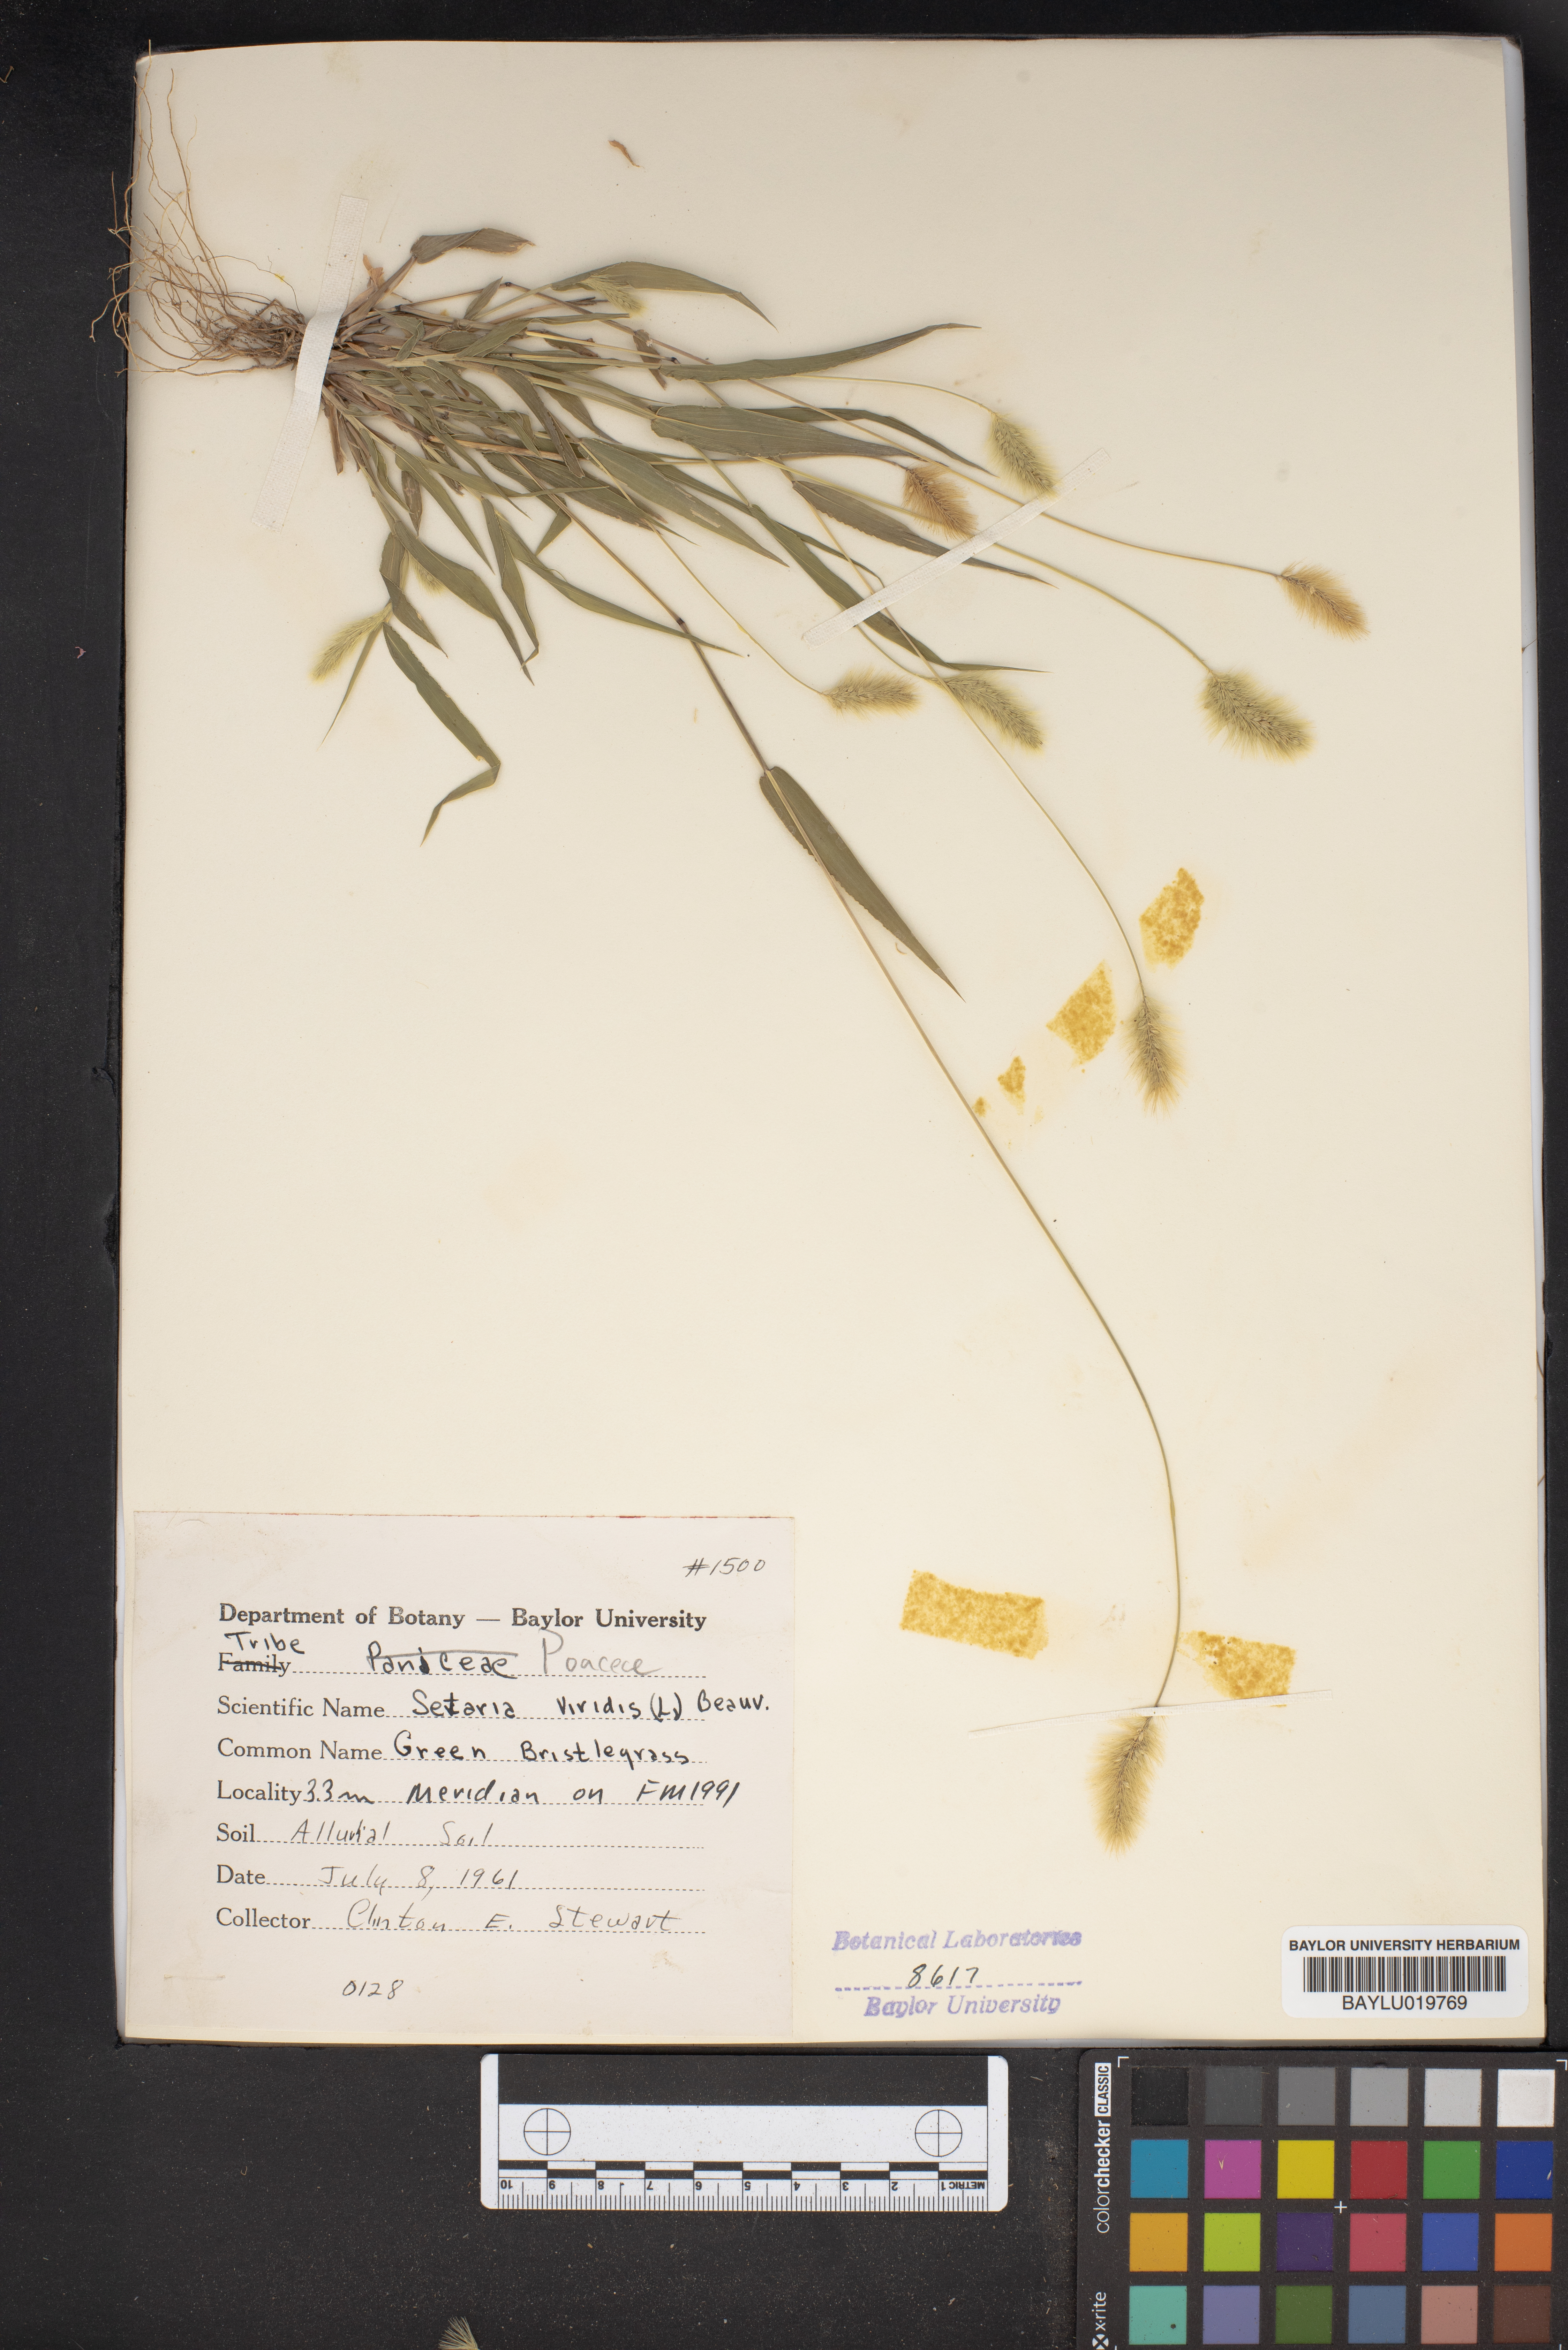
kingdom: Plantae
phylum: Tracheophyta
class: Liliopsida
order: Poales
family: Poaceae
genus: Setaria
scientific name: Setaria viridis
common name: Green bristlegrass
